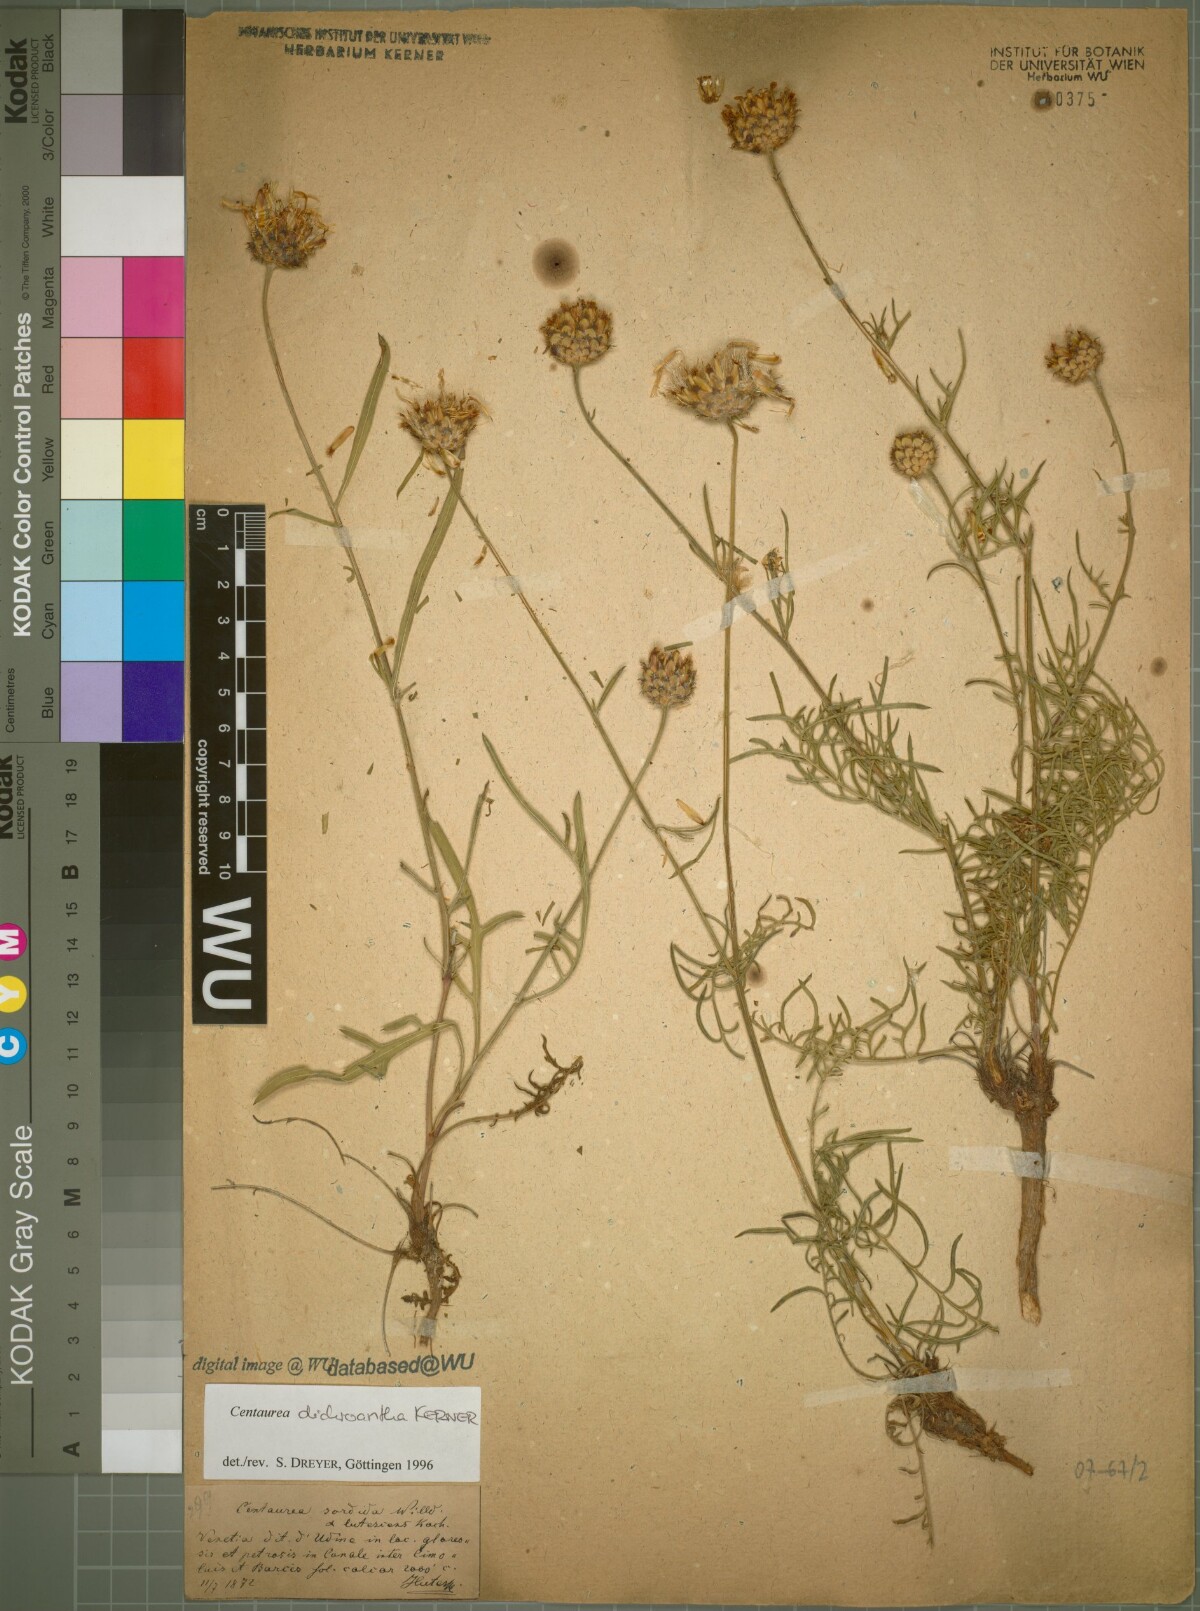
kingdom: Plantae
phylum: Tracheophyta
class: Magnoliopsida
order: Asterales
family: Asteraceae
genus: Centaurea
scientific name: Centaurea dichroantha
